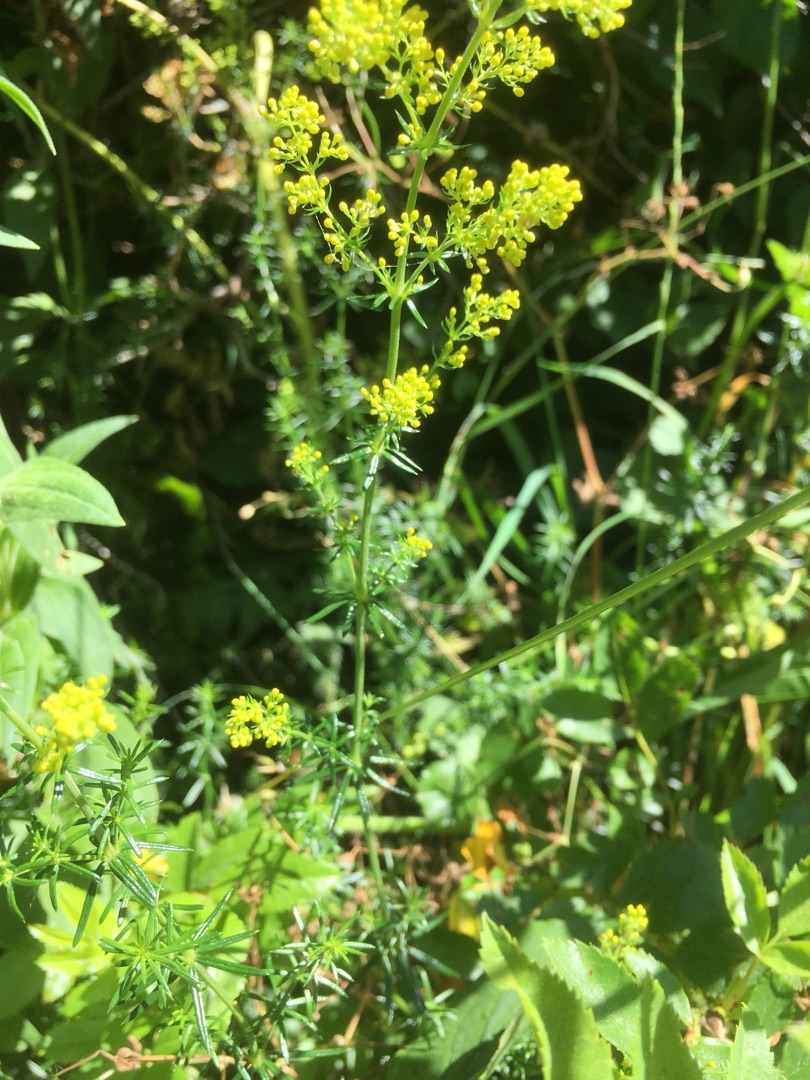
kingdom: Plantae
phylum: Tracheophyta
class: Magnoliopsida
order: Gentianales
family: Rubiaceae
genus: Galium
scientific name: Galium verum
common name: Gul snerre
